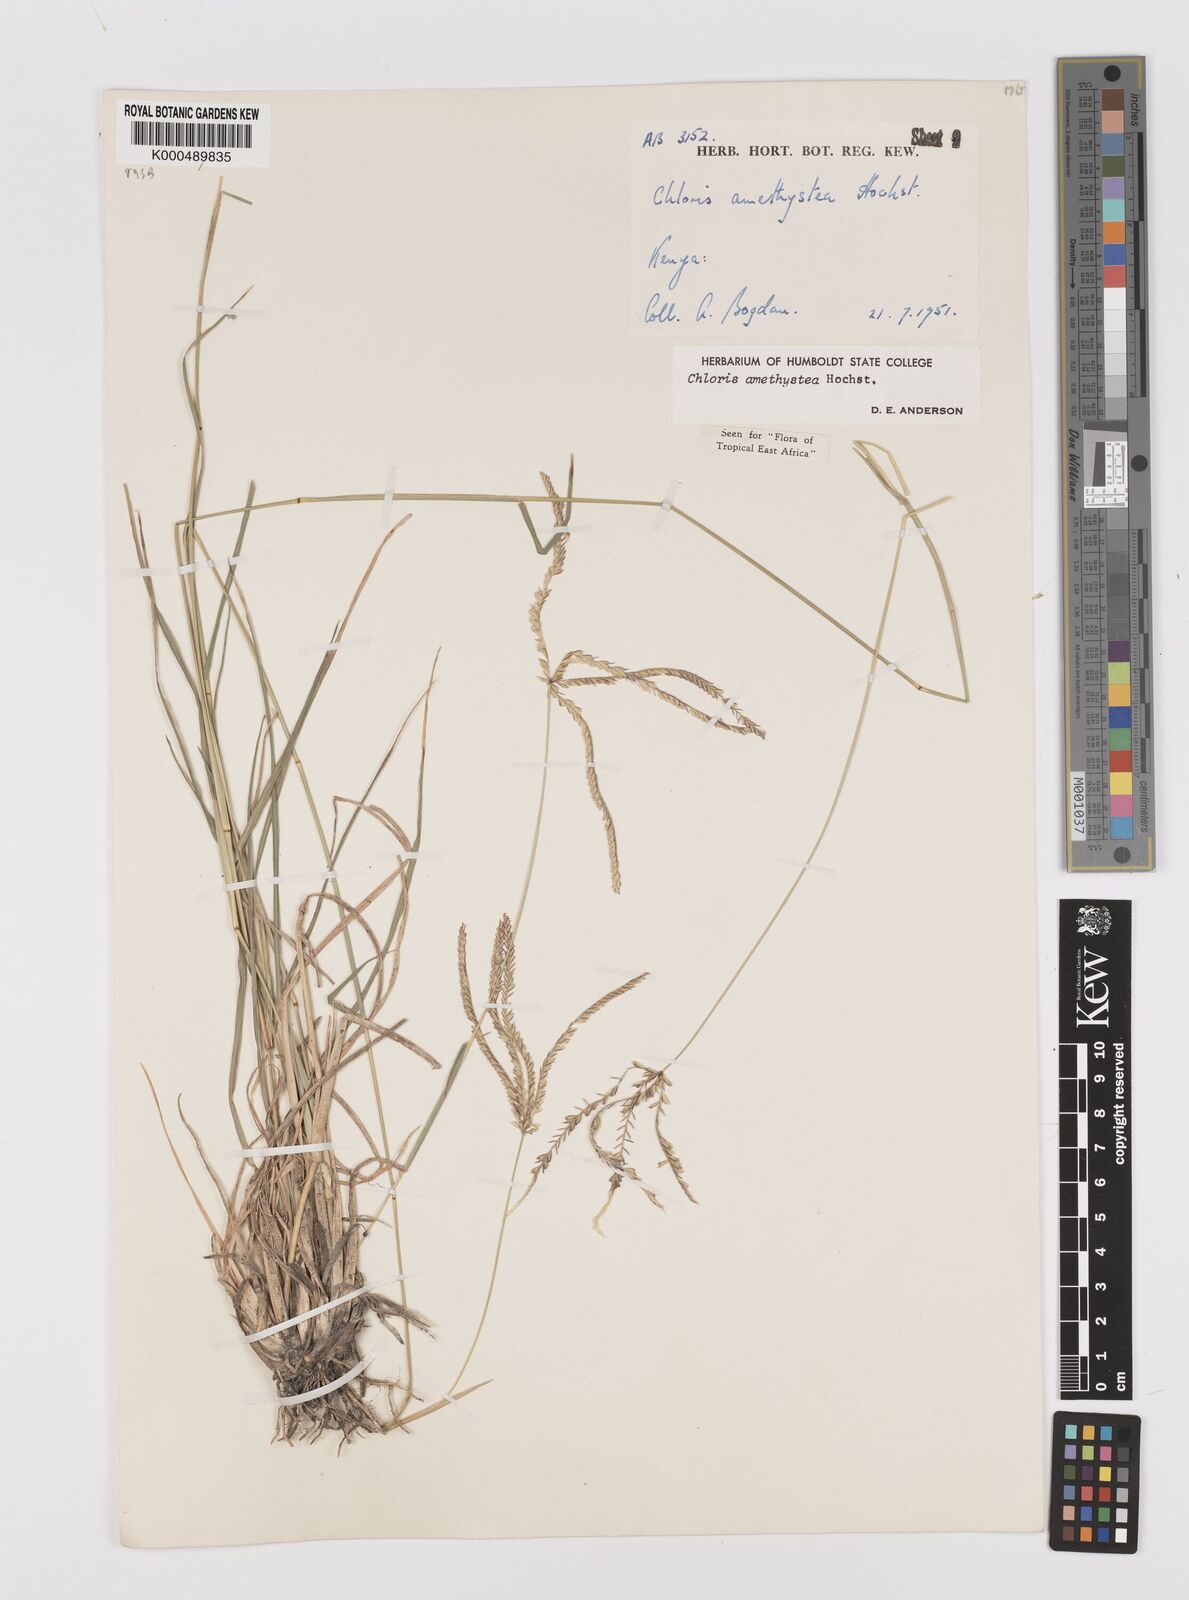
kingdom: Plantae
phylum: Tracheophyta
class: Liliopsida
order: Poales
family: Poaceae
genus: Chloris
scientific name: Chloris amethystea
